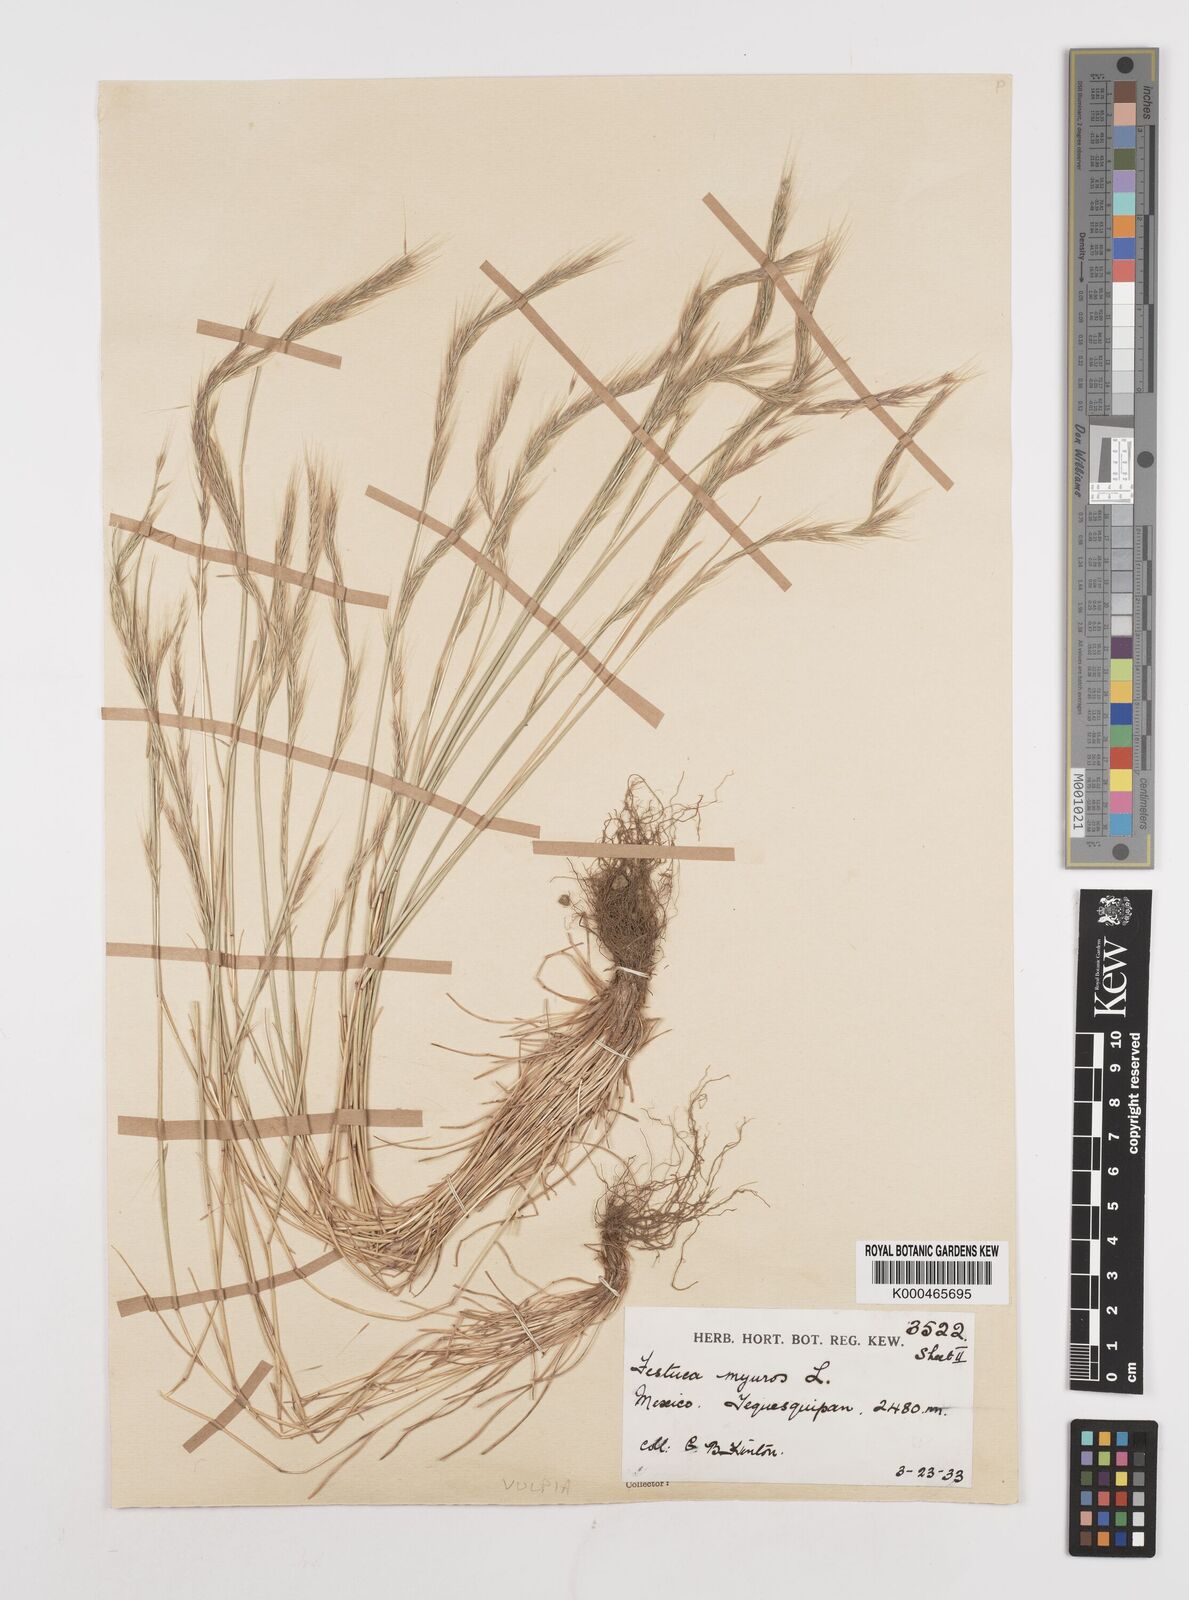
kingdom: Plantae
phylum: Tracheophyta
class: Liliopsida
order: Poales
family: Poaceae
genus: Festuca
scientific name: Festuca myuros
